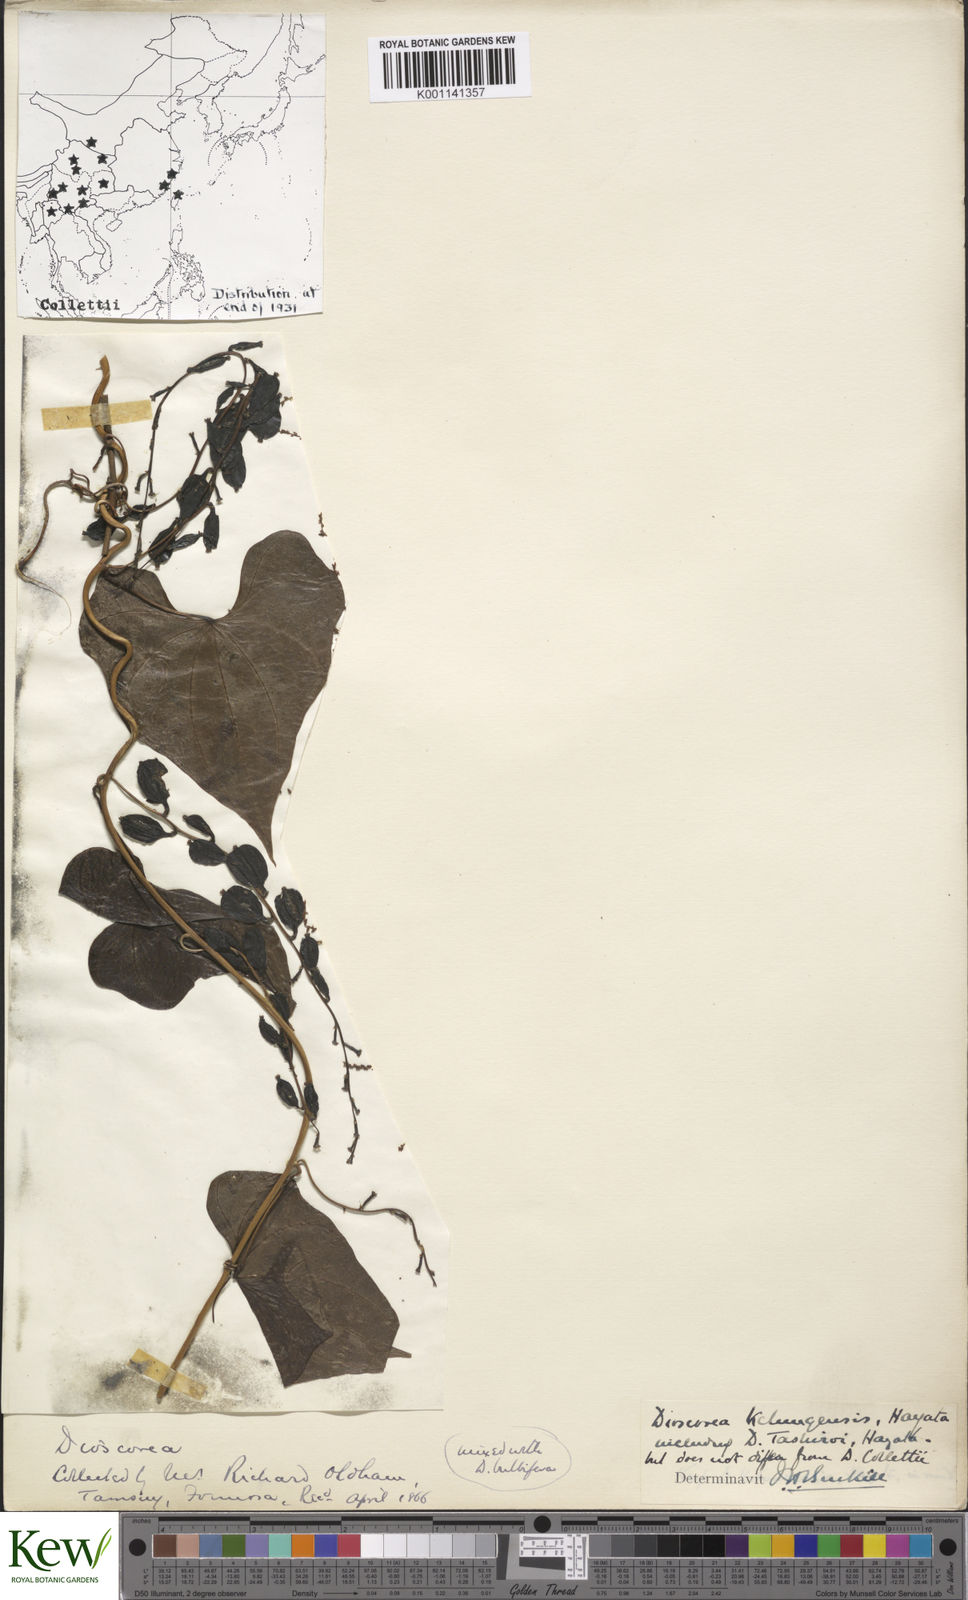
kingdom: Plantae
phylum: Tracheophyta
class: Liliopsida
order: Dioscoreales
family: Dioscoreaceae
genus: Dioscorea
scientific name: Dioscorea collettii
